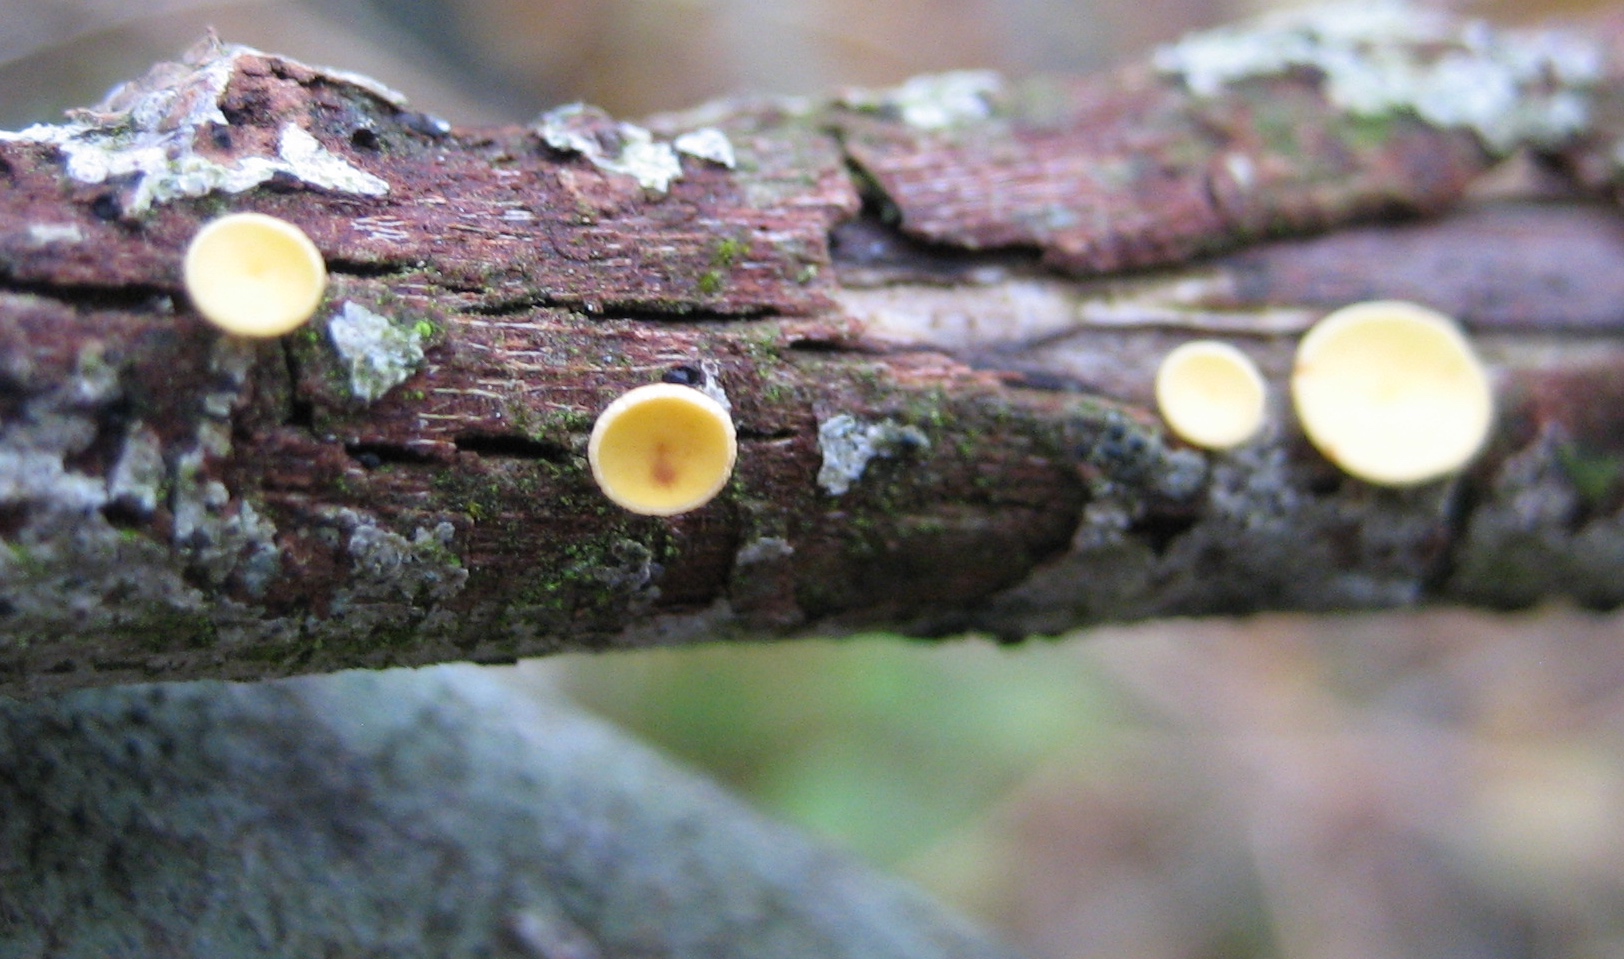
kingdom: Fungi
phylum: Ascomycota
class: Leotiomycetes
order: Helotiales
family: Helotiaceae
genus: Hymenoscyphus
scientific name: Hymenoscyphus
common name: stilkskive
